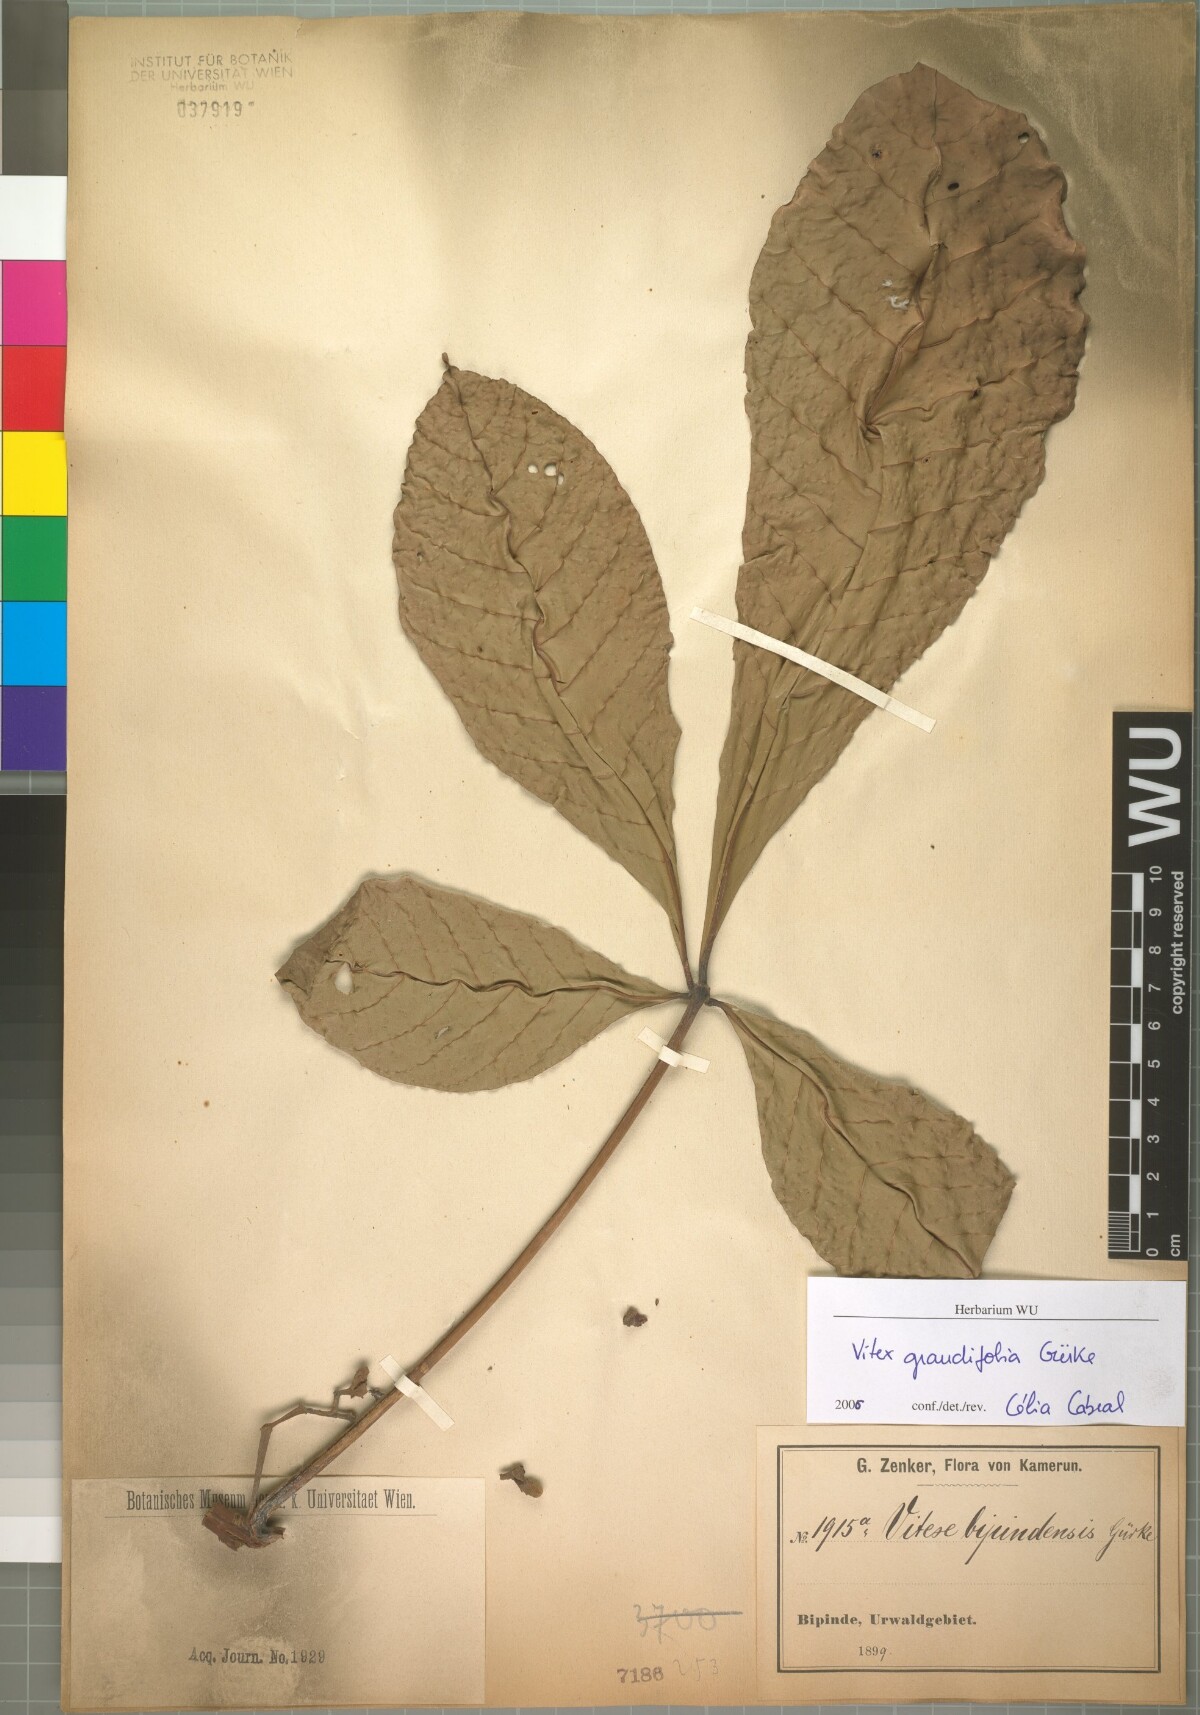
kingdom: Plantae
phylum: Tracheophyta
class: Magnoliopsida
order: Lamiales
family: Lamiaceae
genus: Vitex
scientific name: Vitex grandifolia
